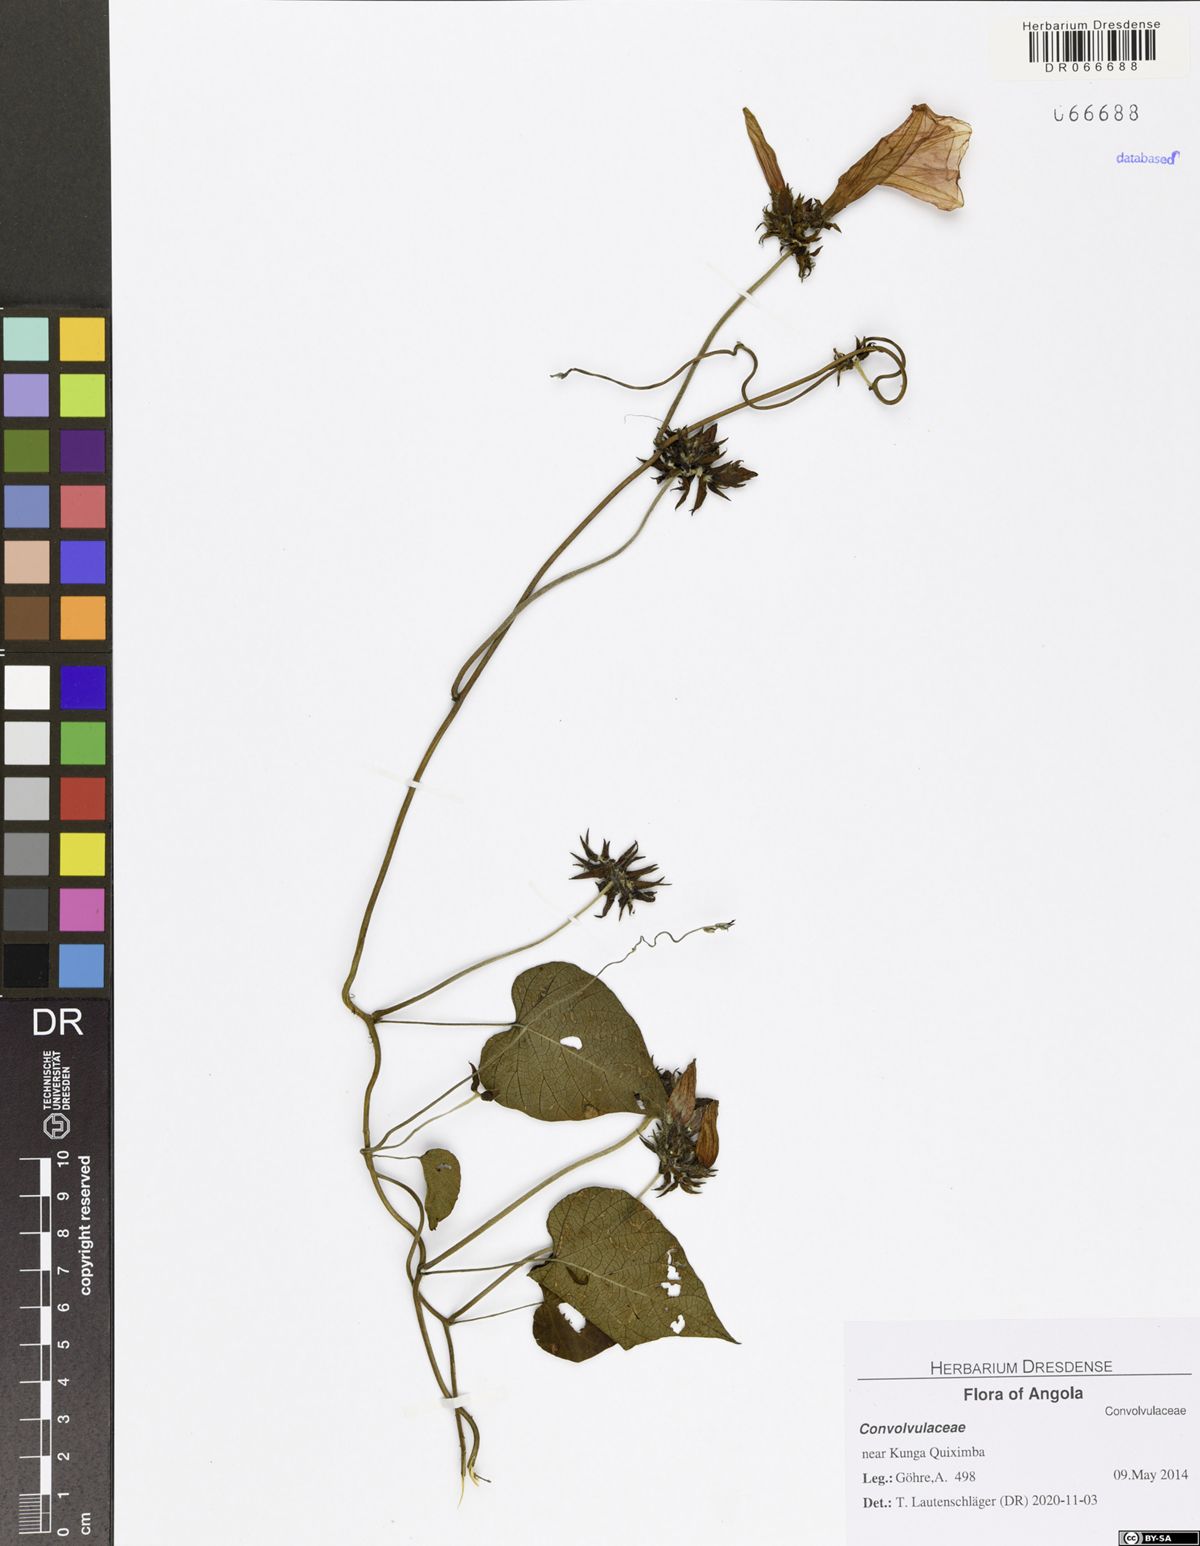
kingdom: Plantae
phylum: Tracheophyta
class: Magnoliopsida
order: Solanales
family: Convolvulaceae
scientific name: Convolvulaceae
